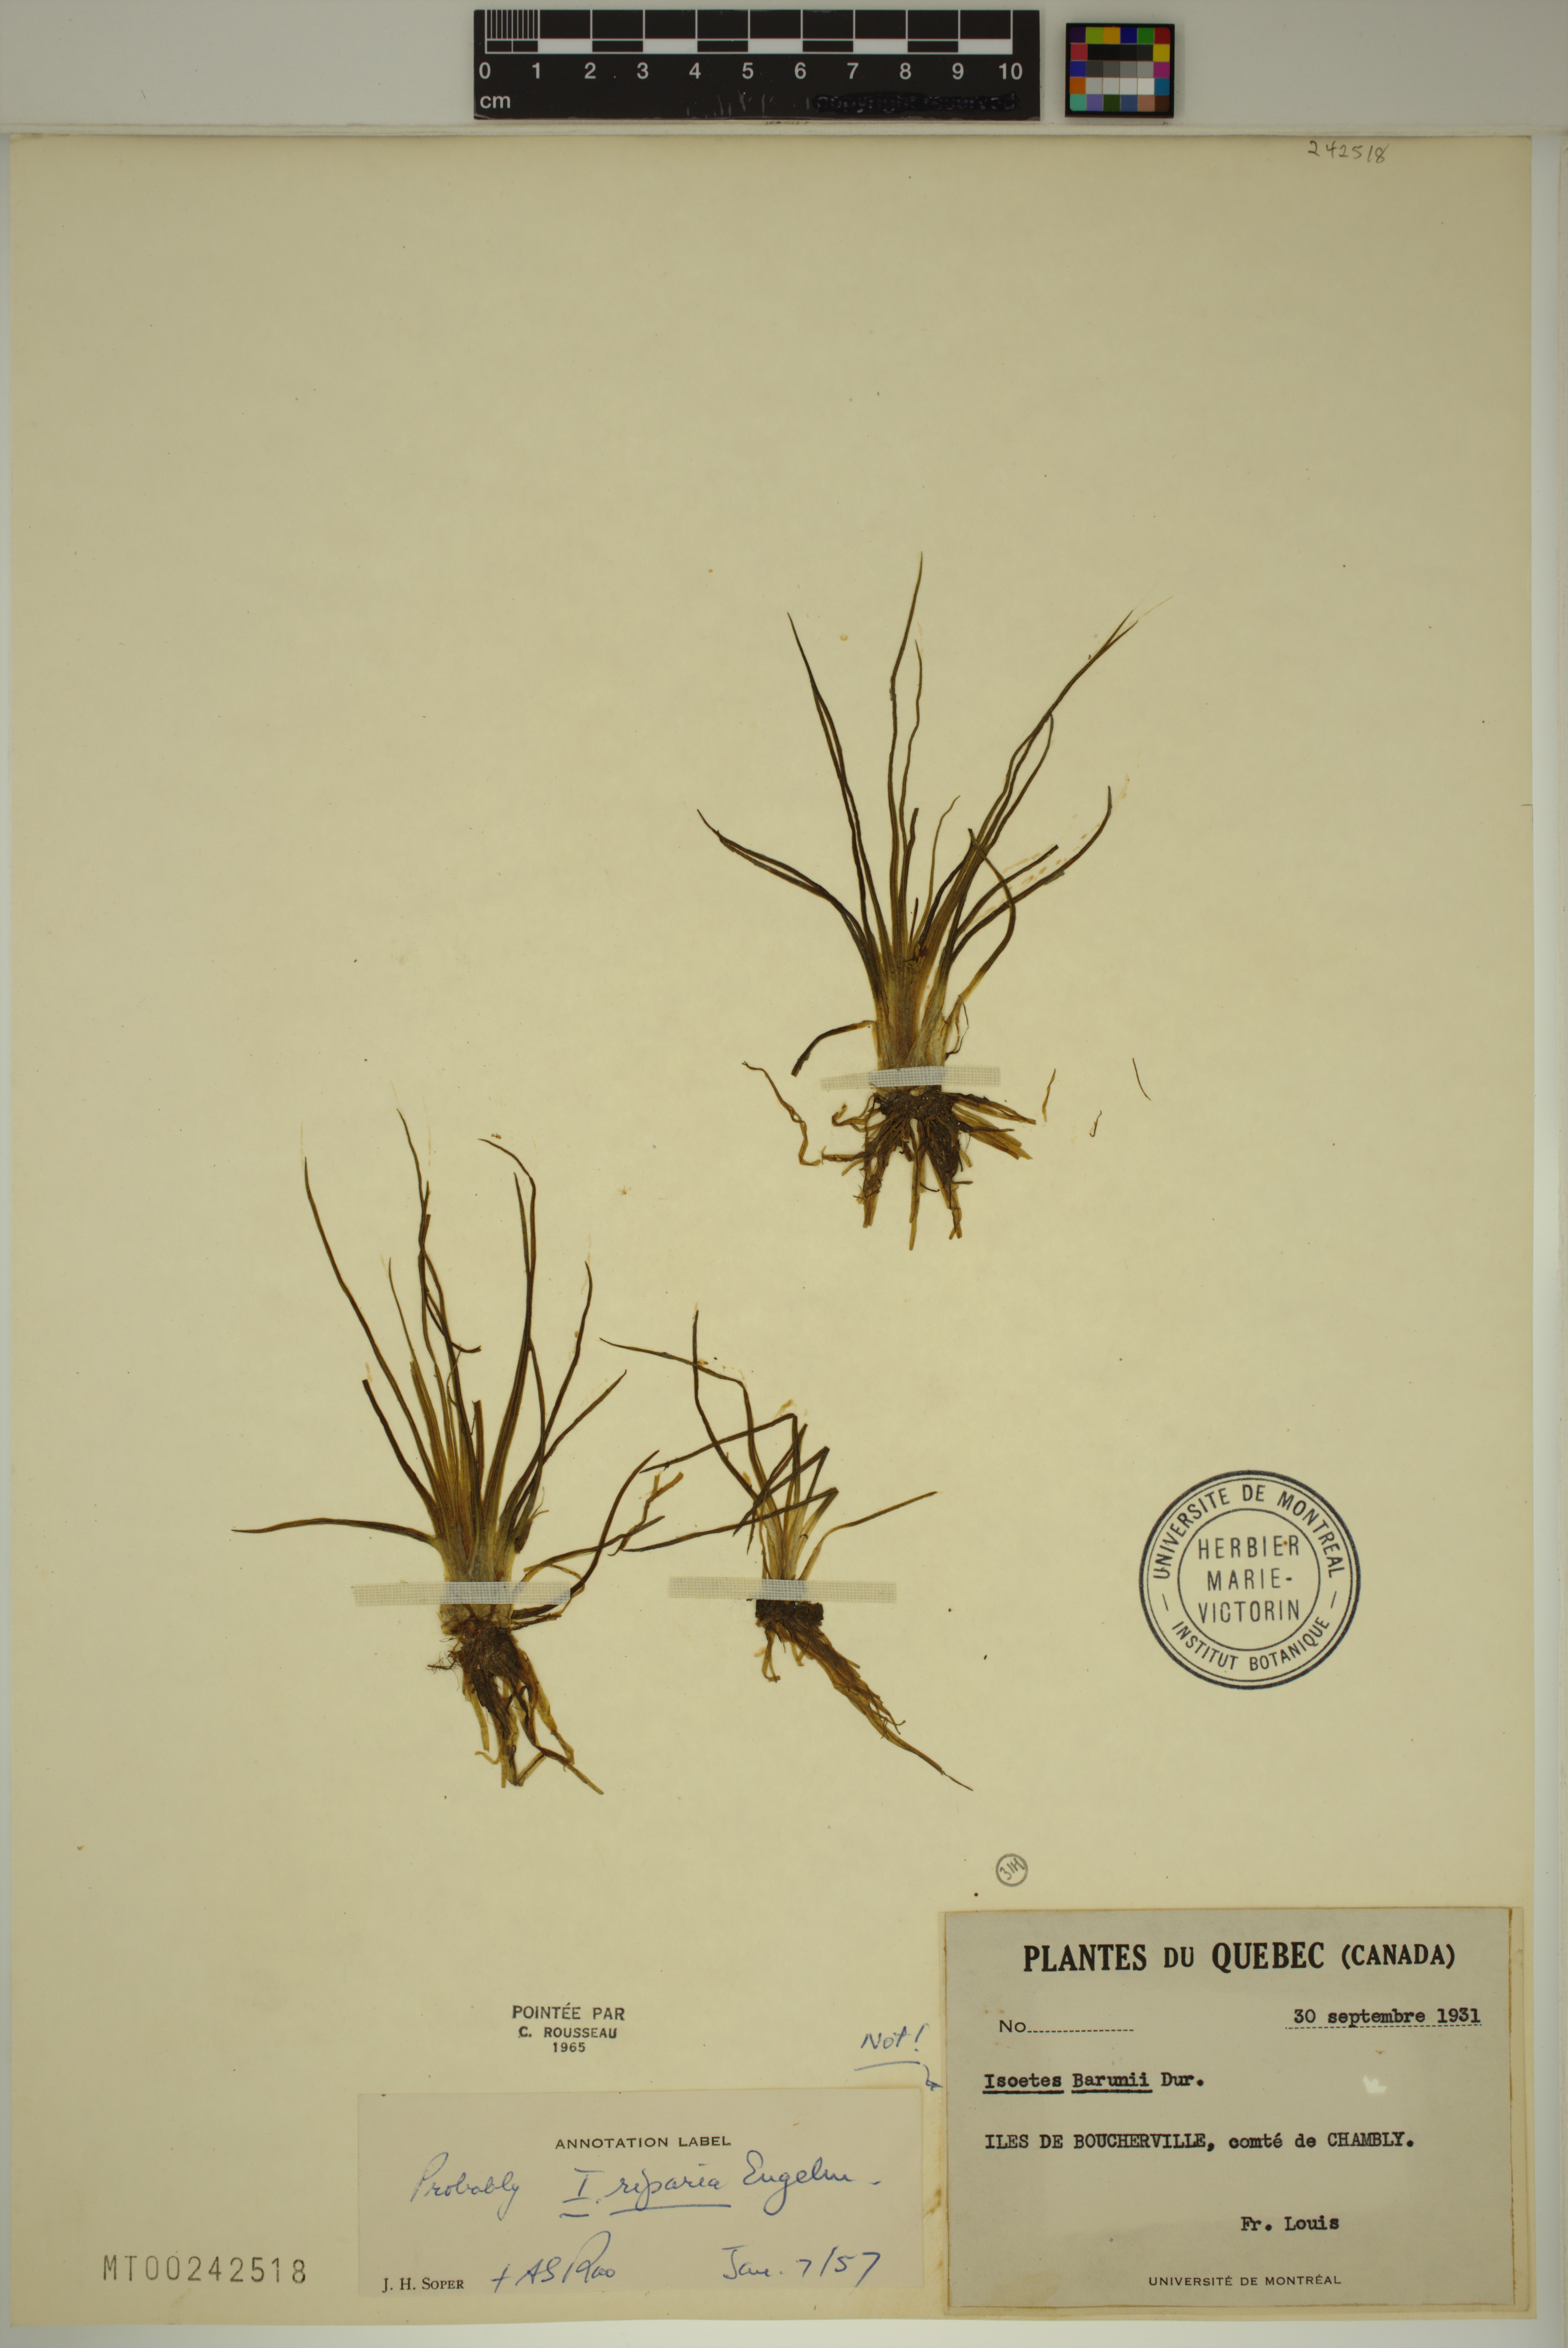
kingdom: Plantae
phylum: Tracheophyta
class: Lycopodiopsida
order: Isoetales
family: Isoetaceae
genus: Isoetes
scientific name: Isoetes septentrionalis
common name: Northern quillwort
